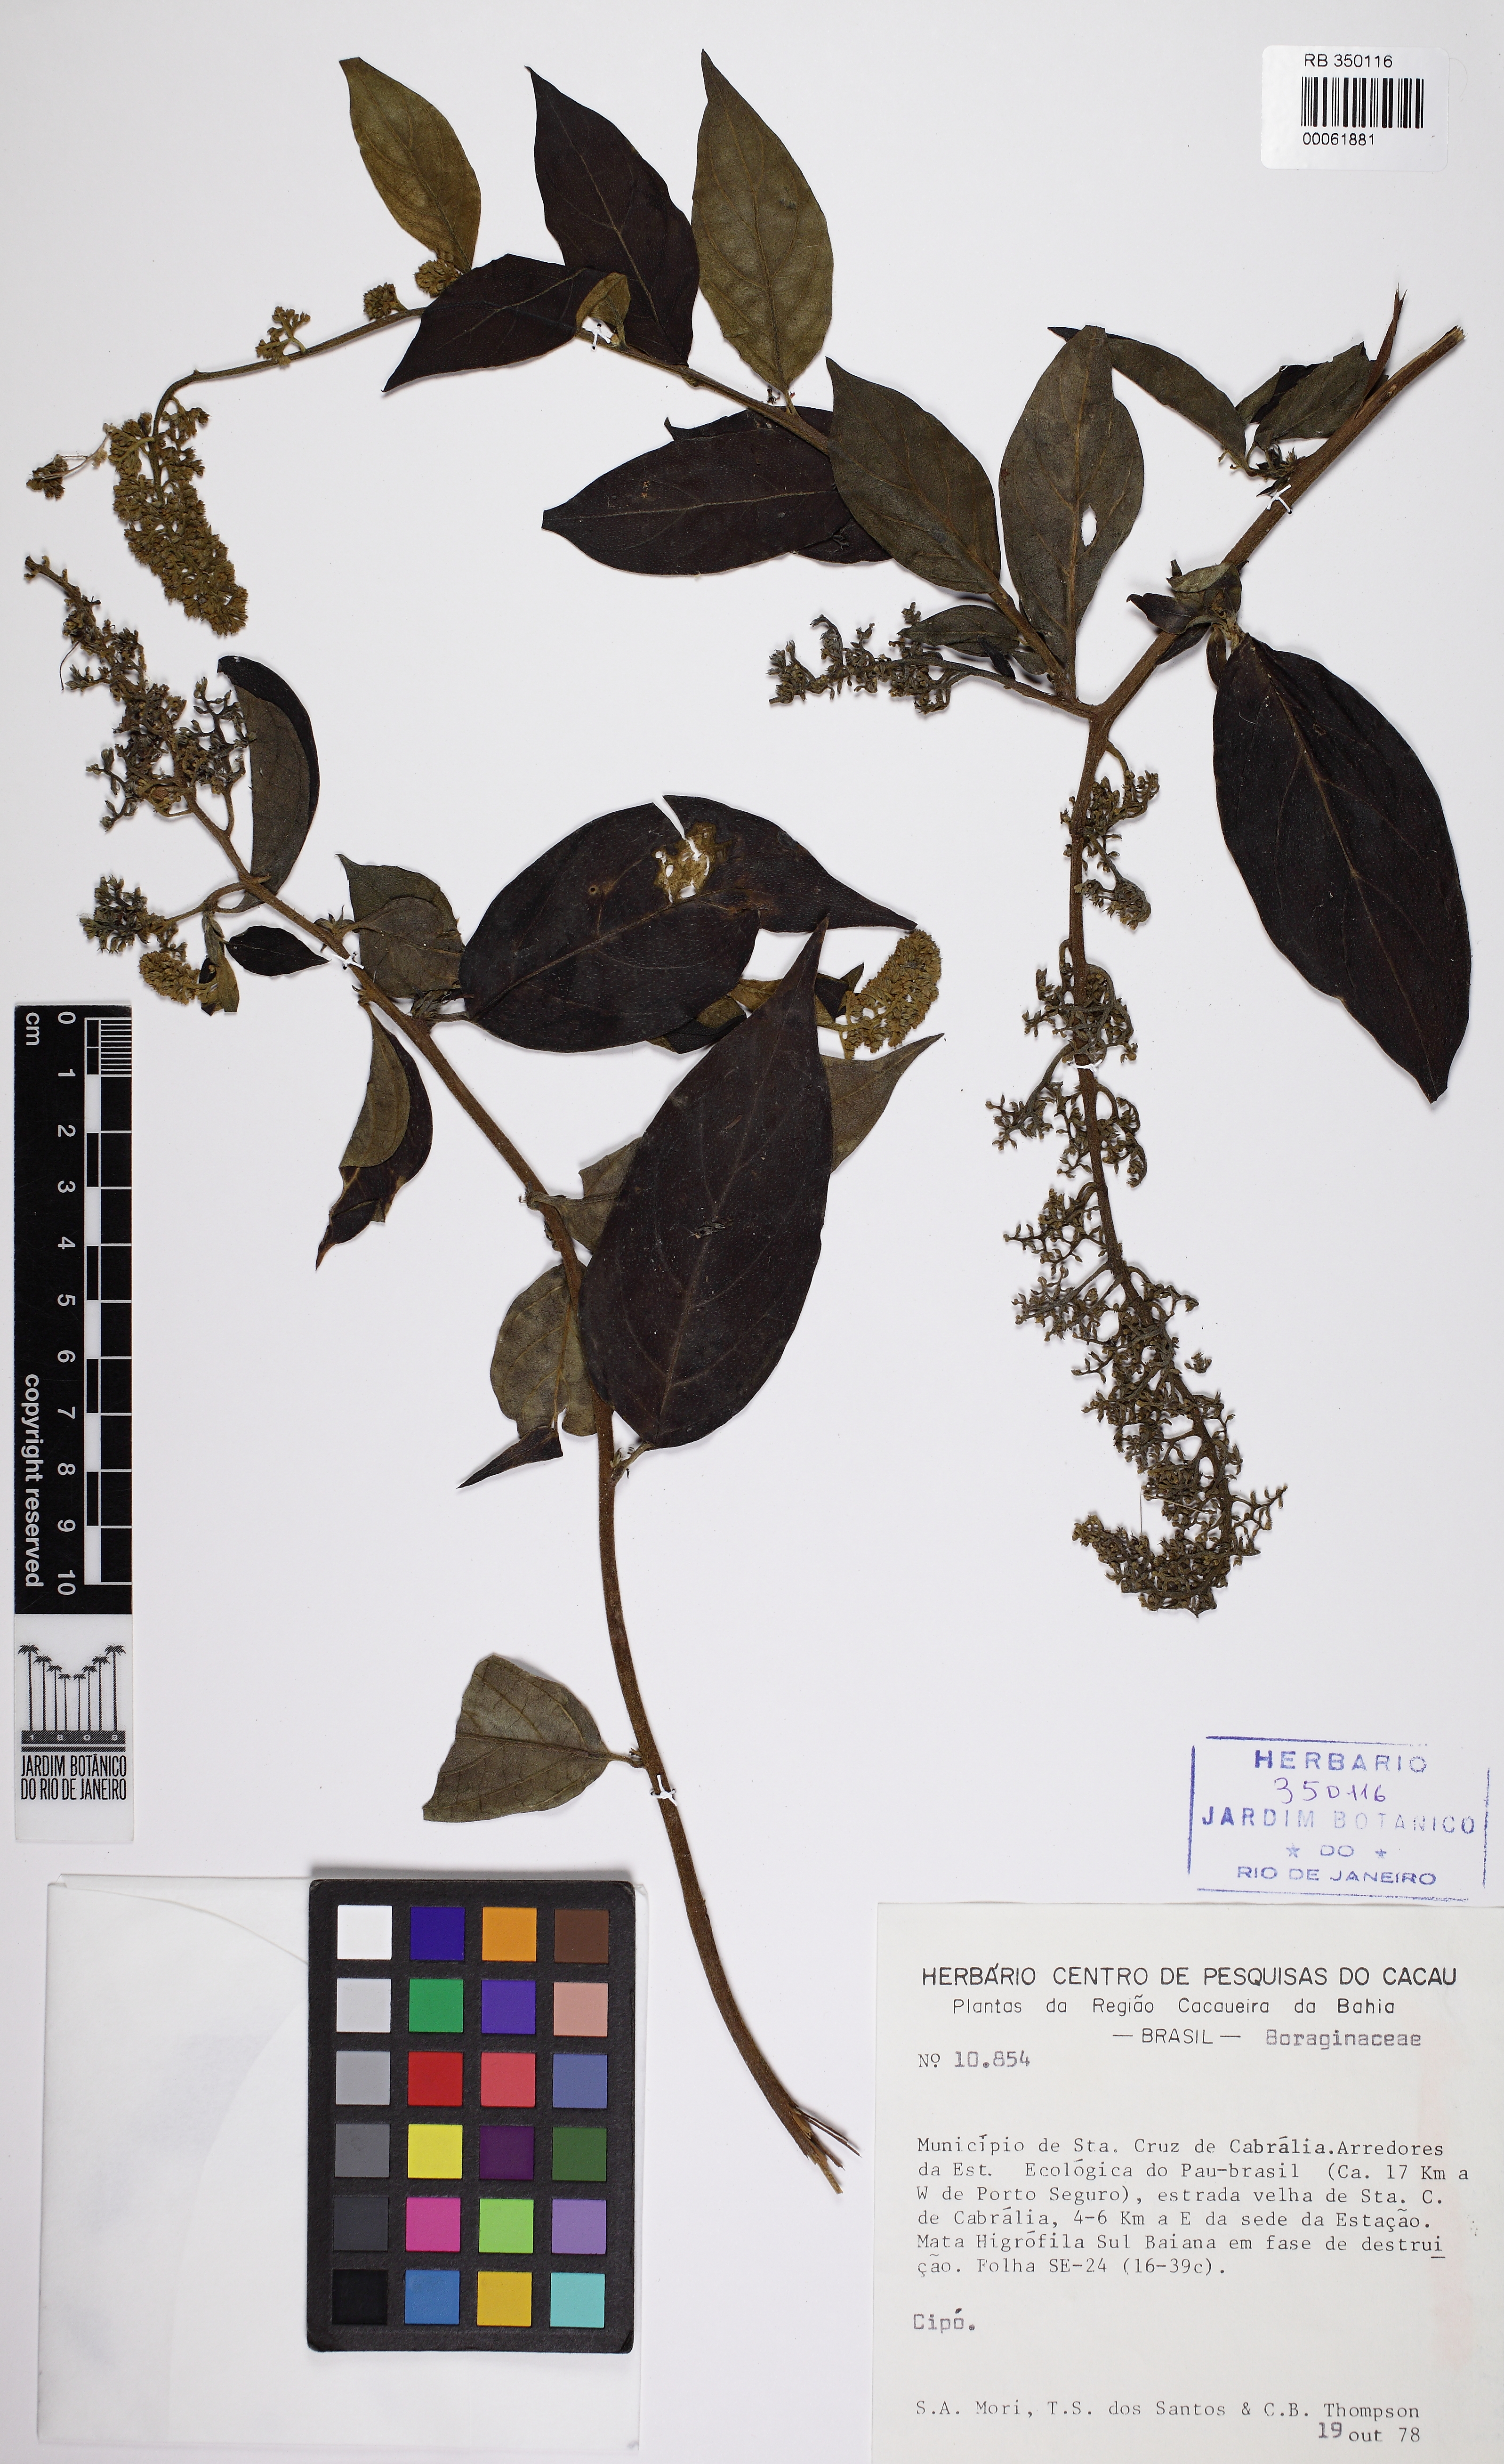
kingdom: Plantae
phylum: Tracheophyta
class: Magnoliopsida
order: Boraginales
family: Heliotropiaceae
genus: Myriopus
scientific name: Myriopus gardneri
